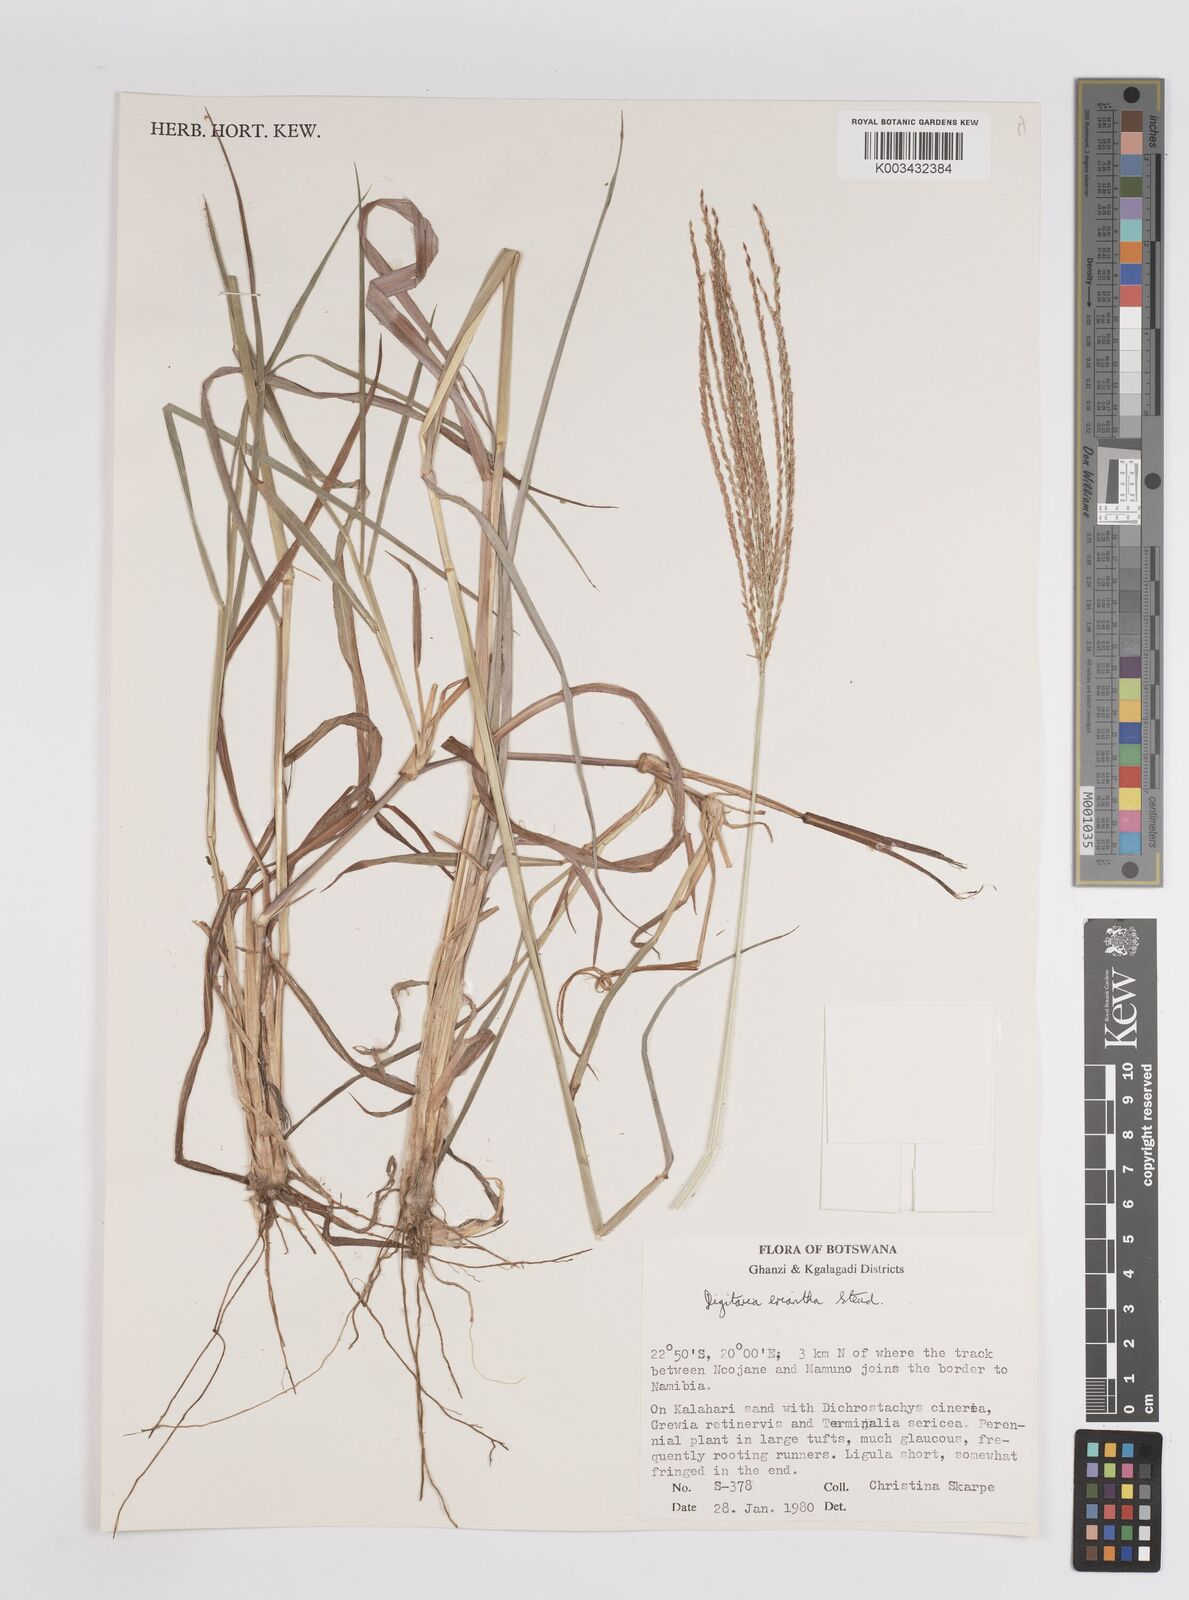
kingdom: Plantae
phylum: Tracheophyta
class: Liliopsida
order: Poales
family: Poaceae
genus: Digitaria
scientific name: Digitaria eriantha
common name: Digitgrass
